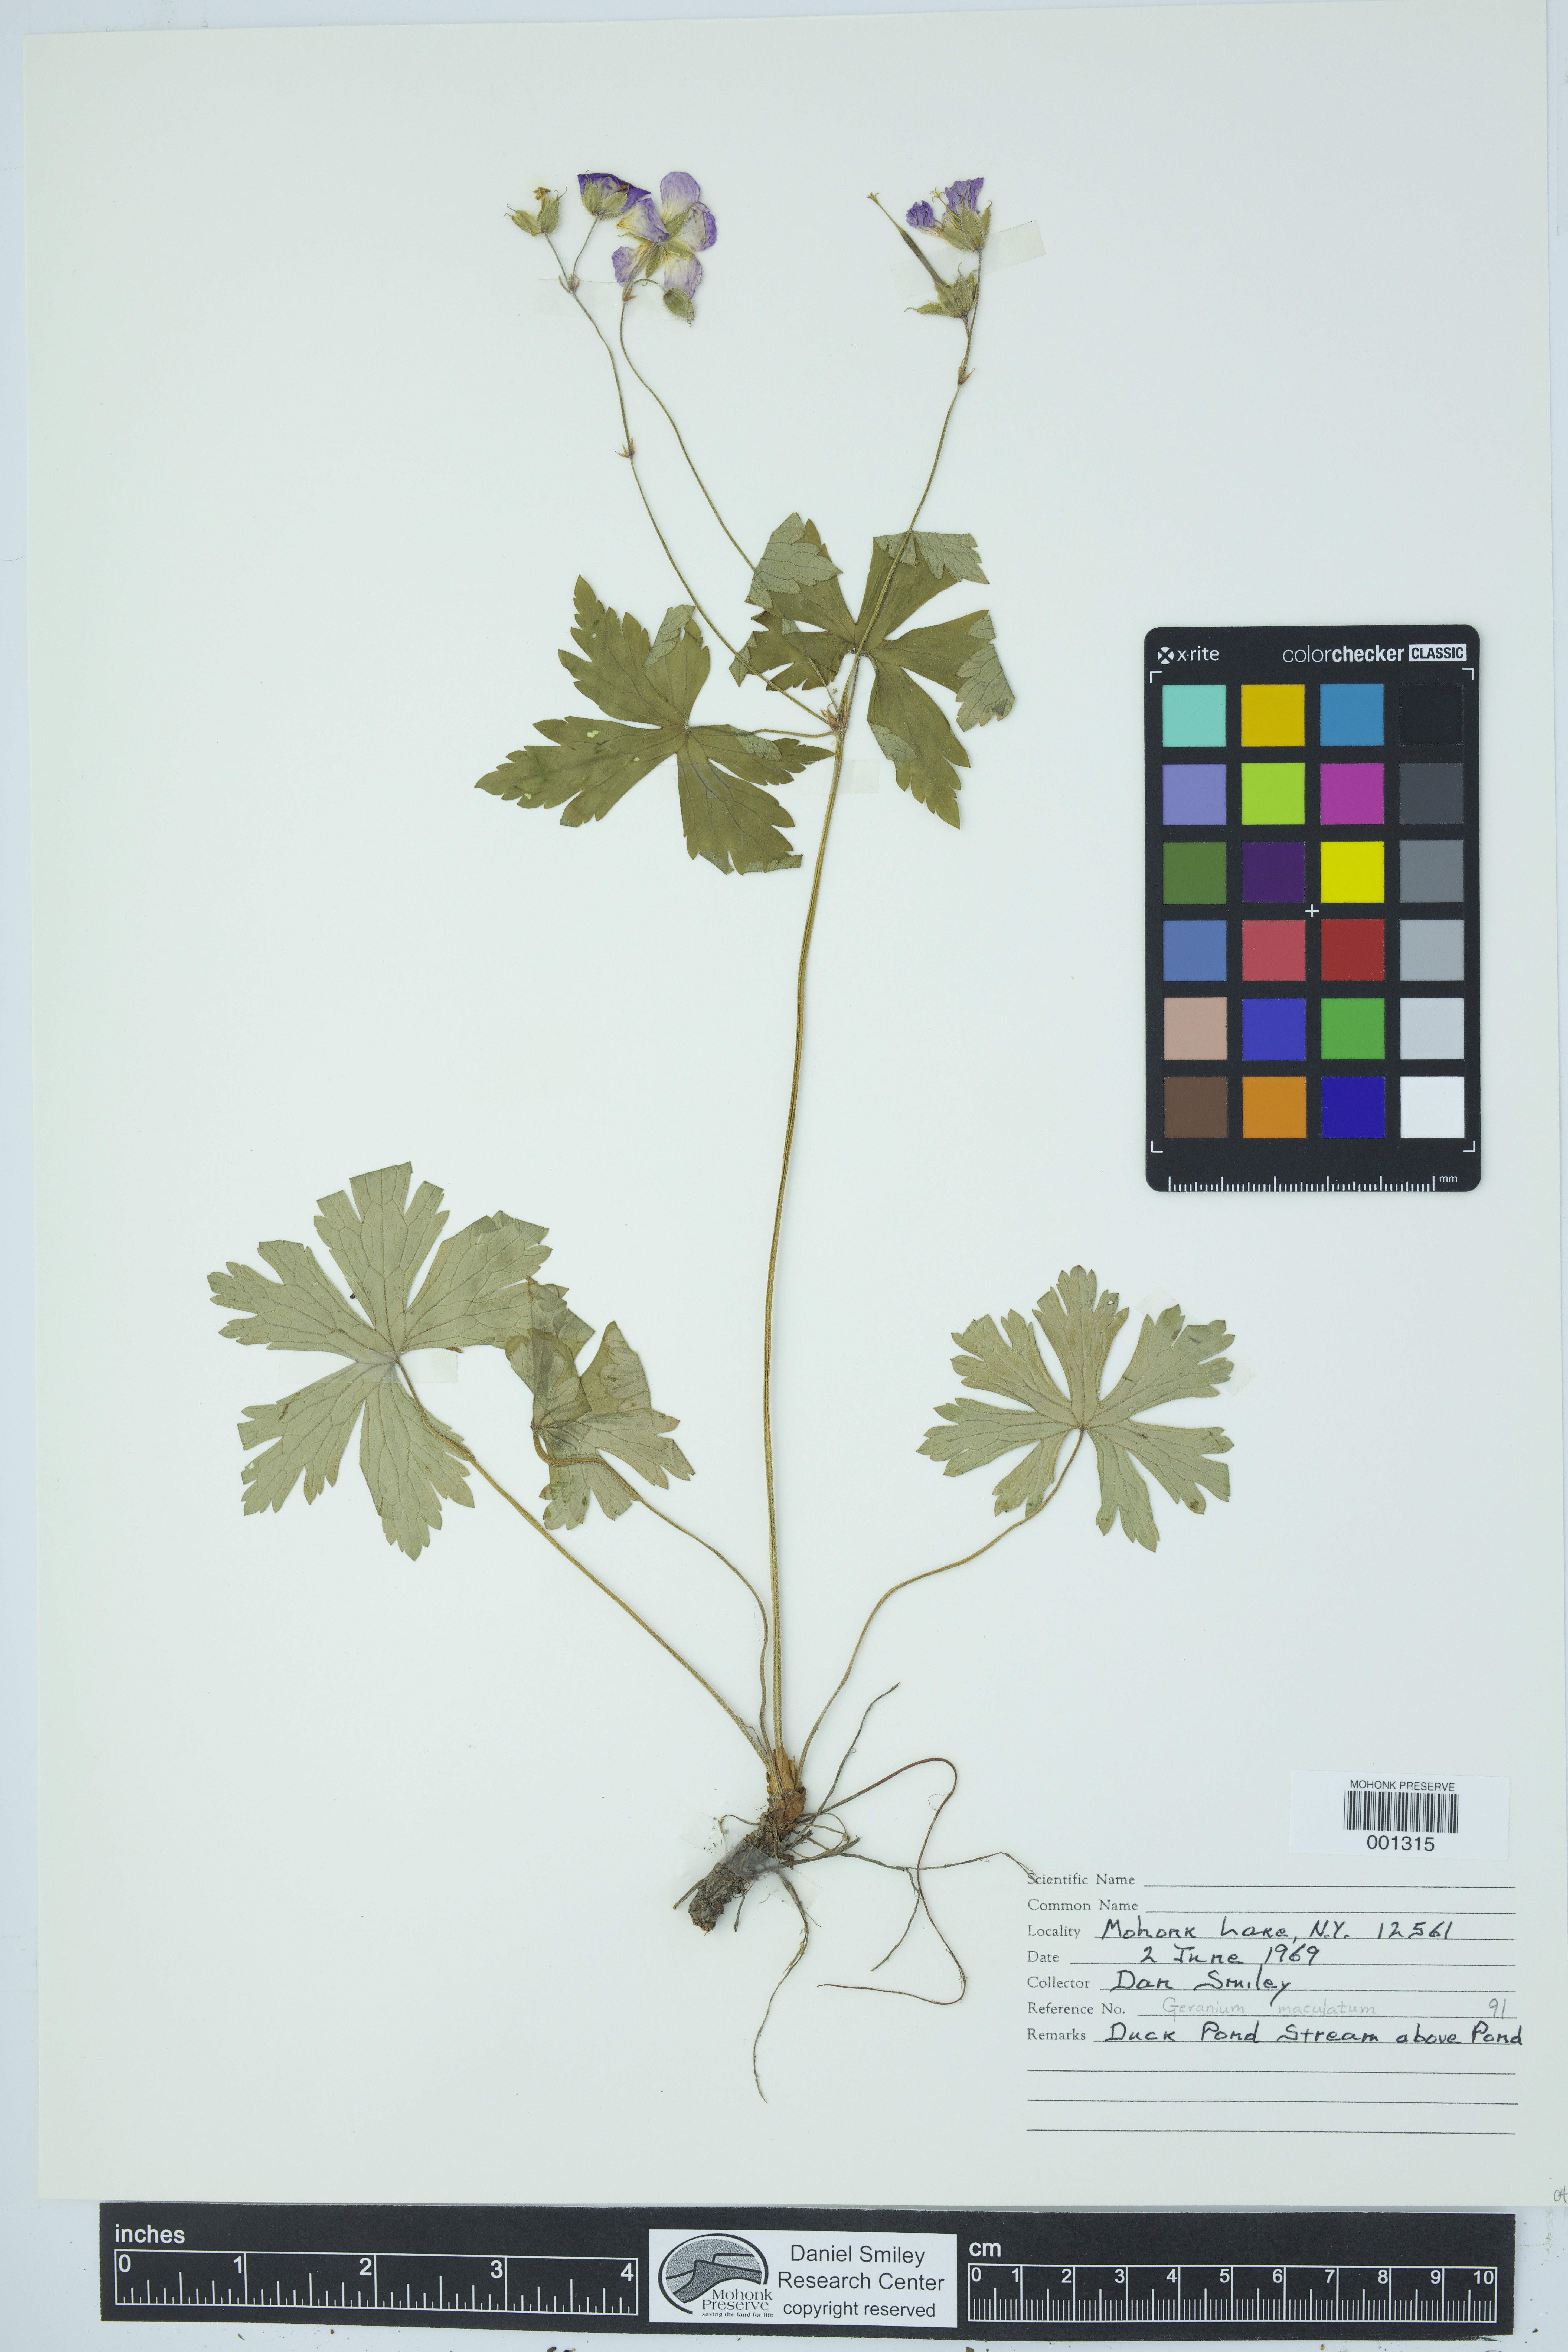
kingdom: Plantae
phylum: Tracheophyta
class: Magnoliopsida
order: Geraniales
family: Geraniaceae
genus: Geranium
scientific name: Geranium maculatum
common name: Spotted geranium
